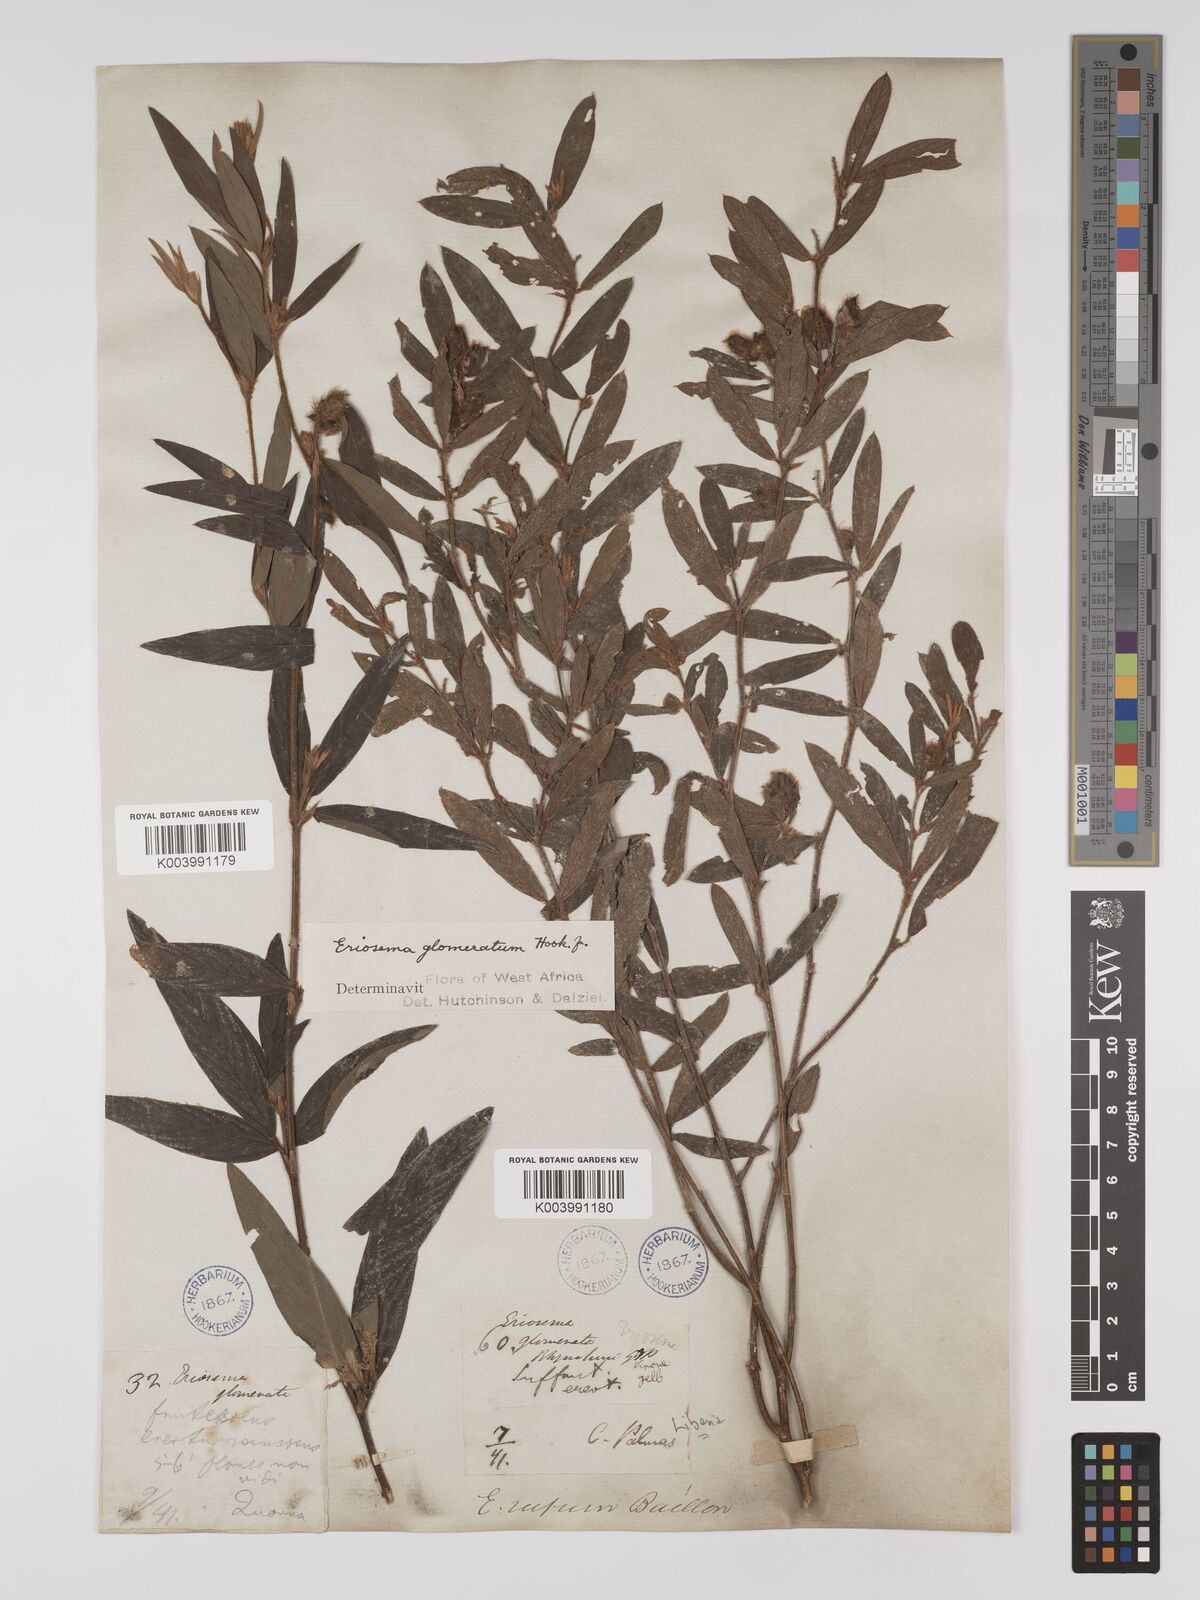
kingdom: Plantae
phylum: Tracheophyta
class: Magnoliopsida
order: Fabales
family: Fabaceae
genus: Eriosema
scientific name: Eriosema glomeratum
